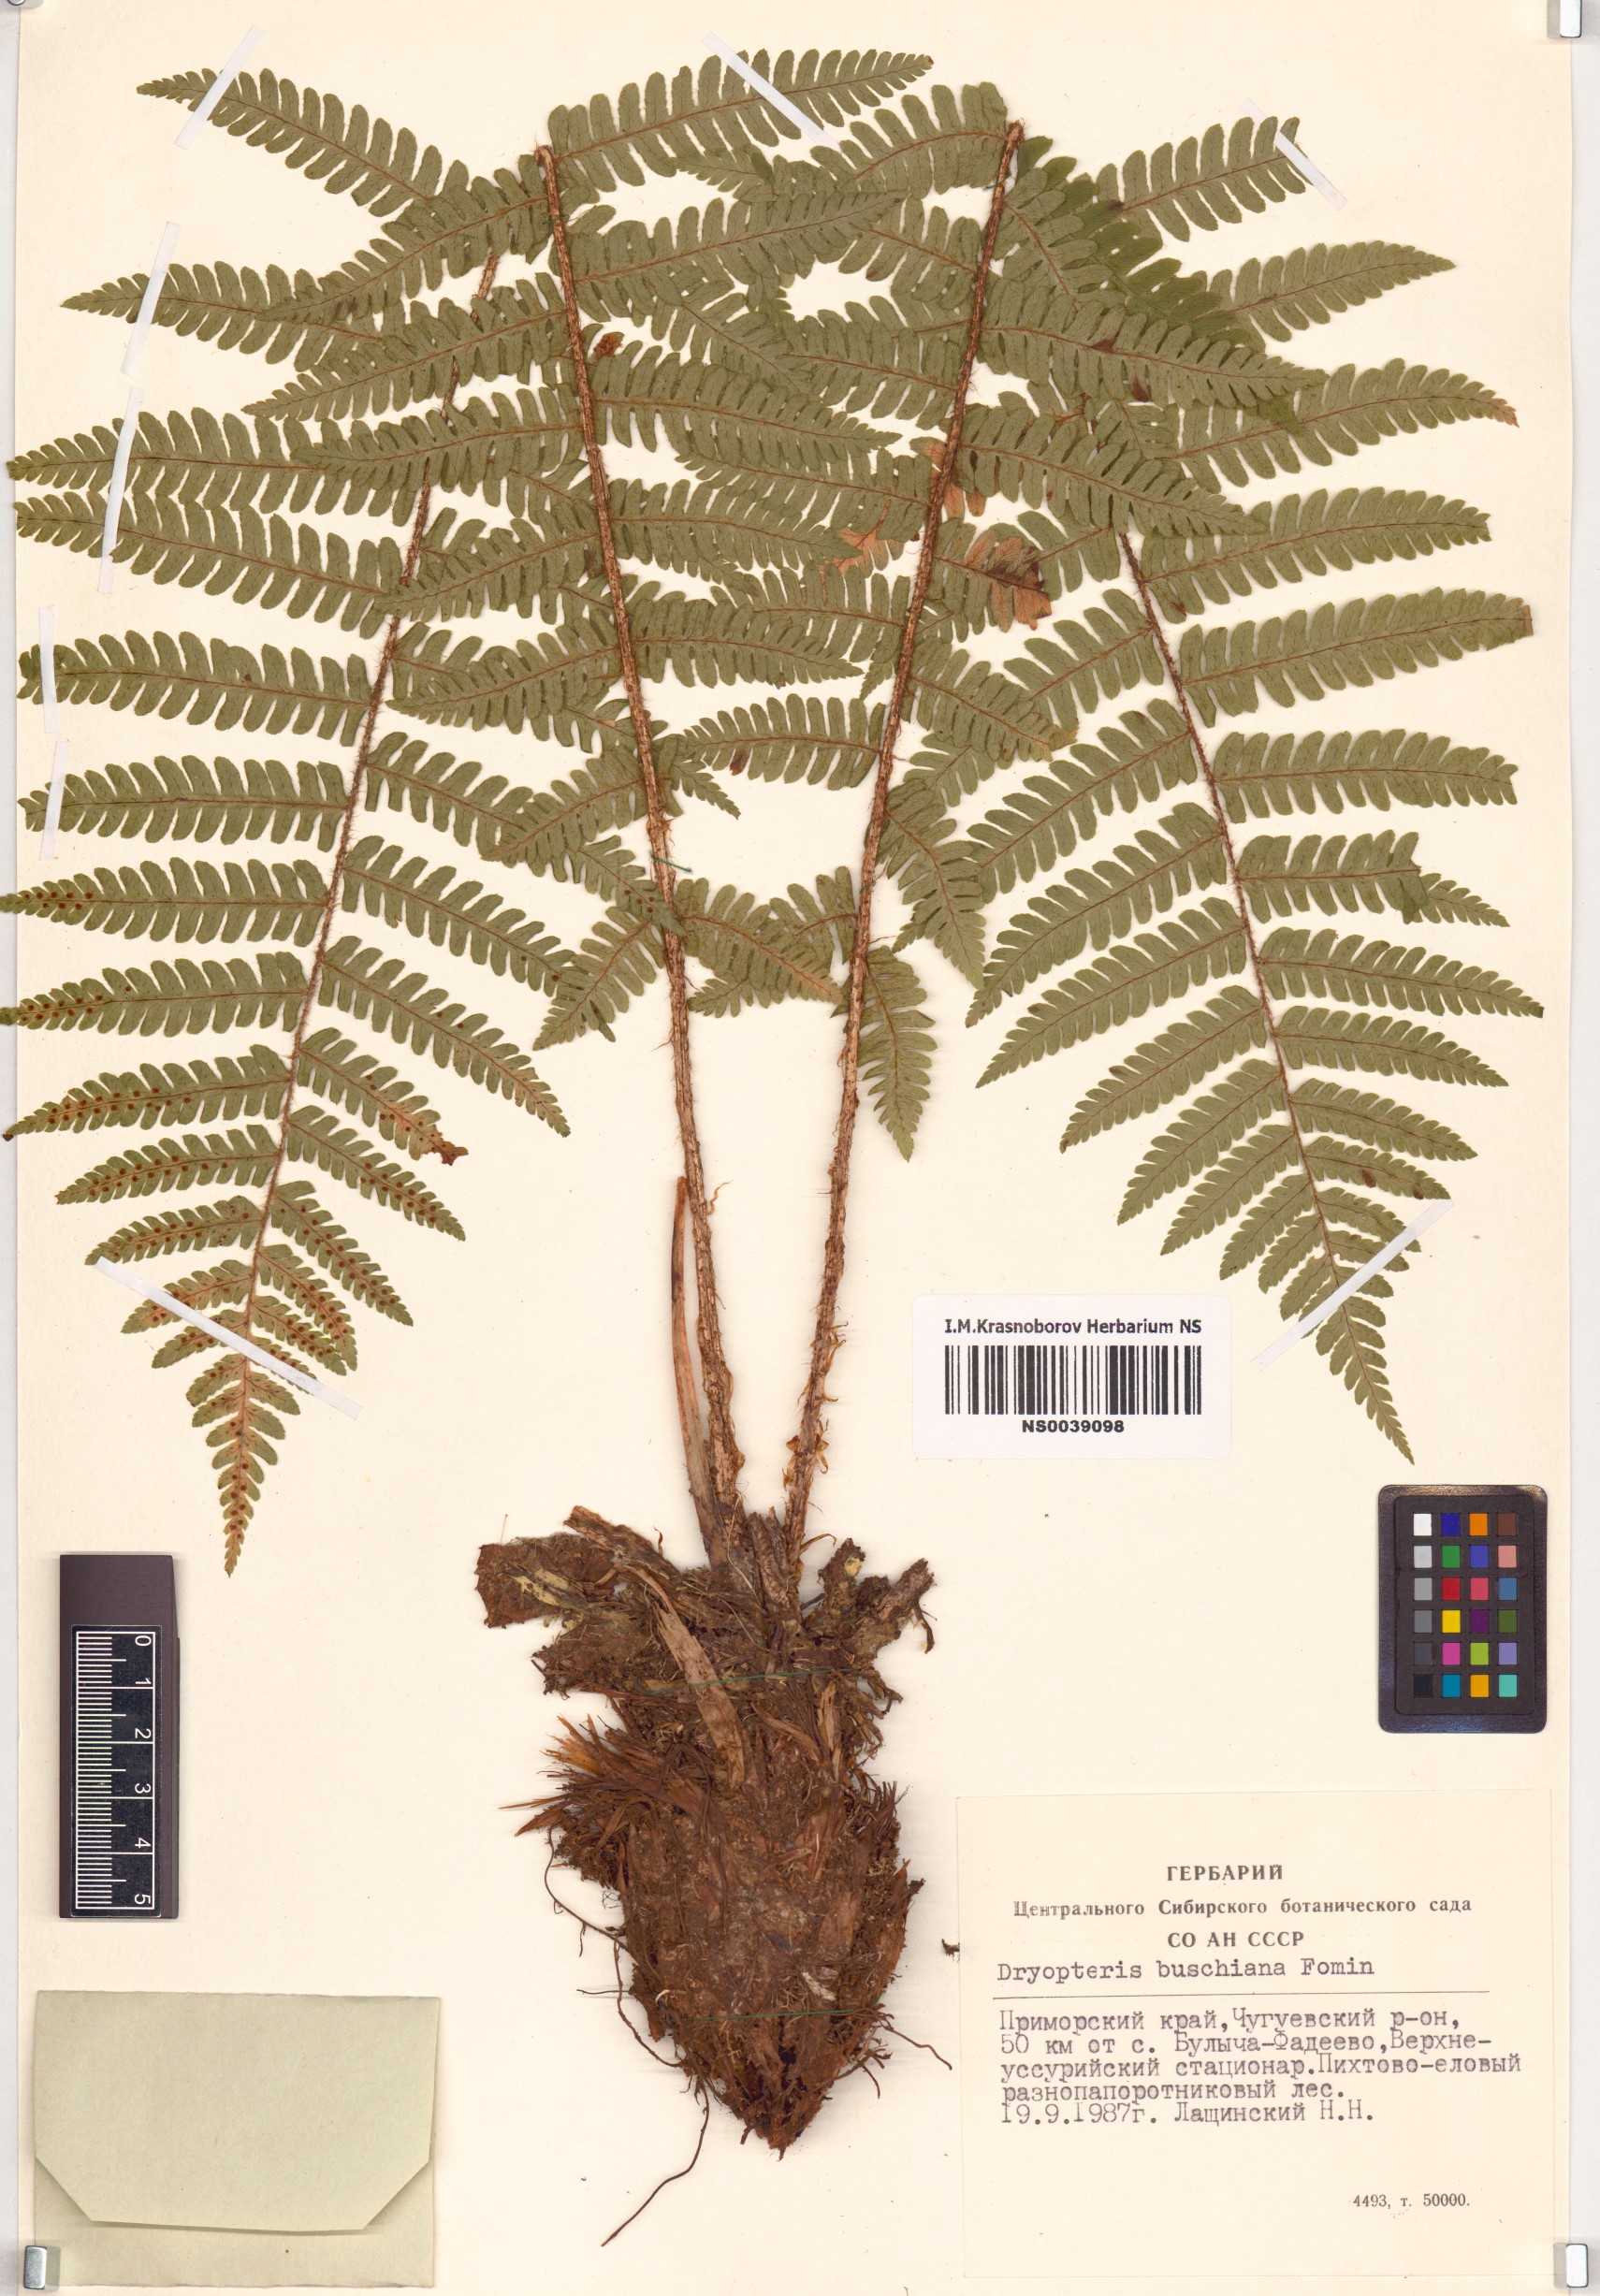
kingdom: Plantae
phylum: Tracheophyta
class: Polypodiopsida
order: Polypodiales
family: Dryopteridaceae
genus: Dryopteris
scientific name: Dryopteris crassirhizoma
